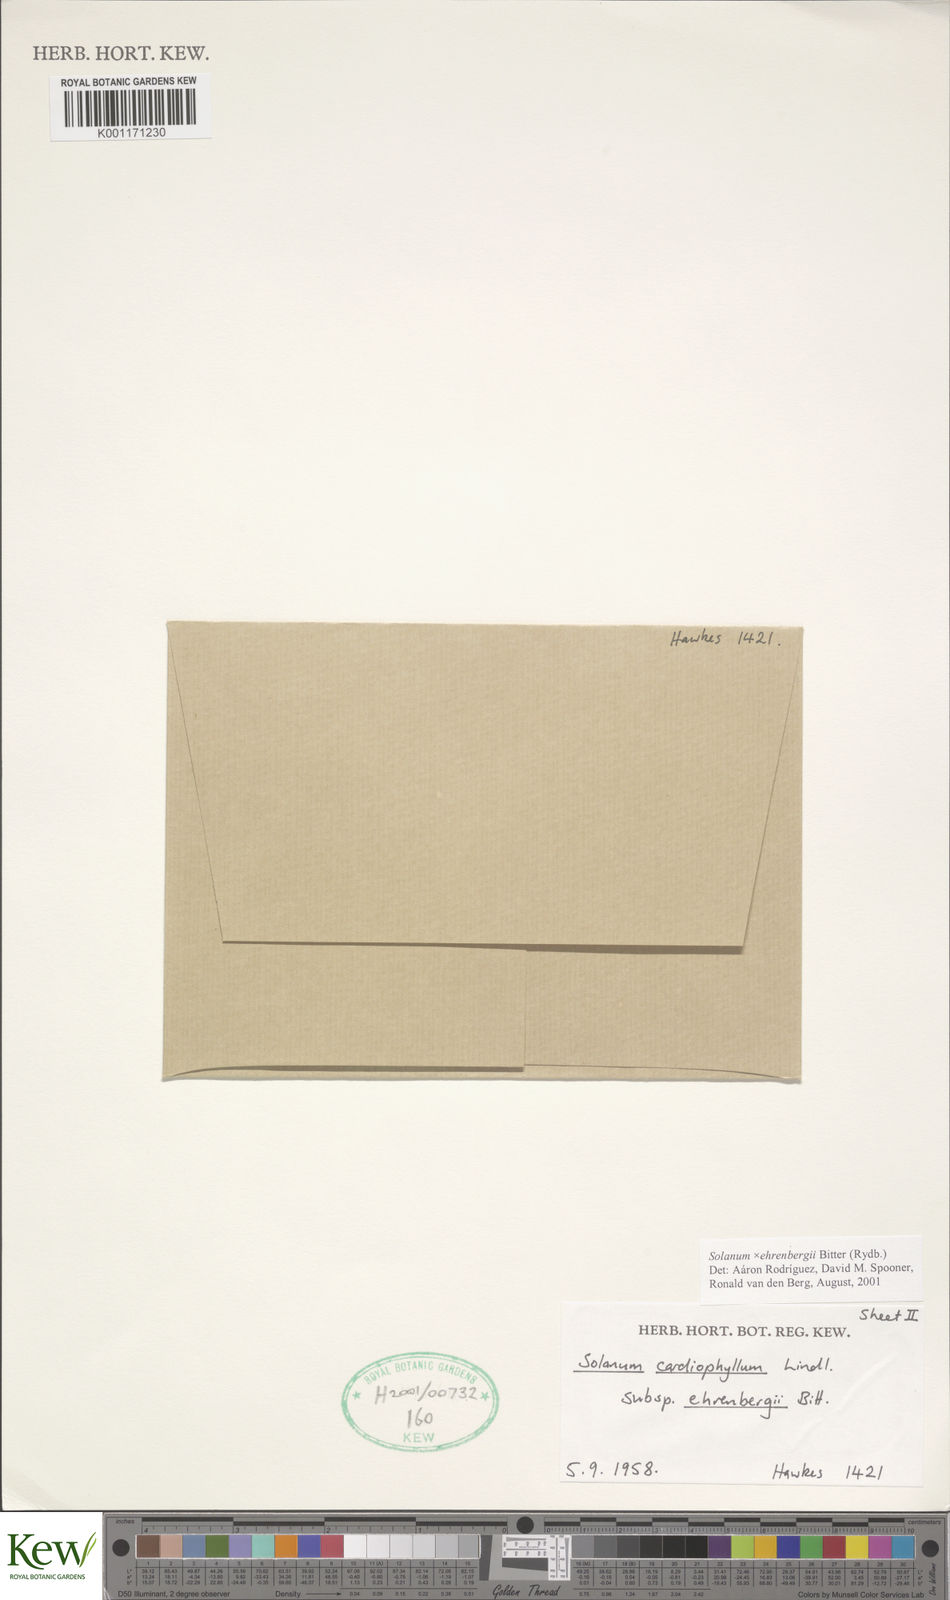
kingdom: Plantae
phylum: Tracheophyta
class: Magnoliopsida
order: Solanales
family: Solanaceae
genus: Solanum
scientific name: Solanum edinense
